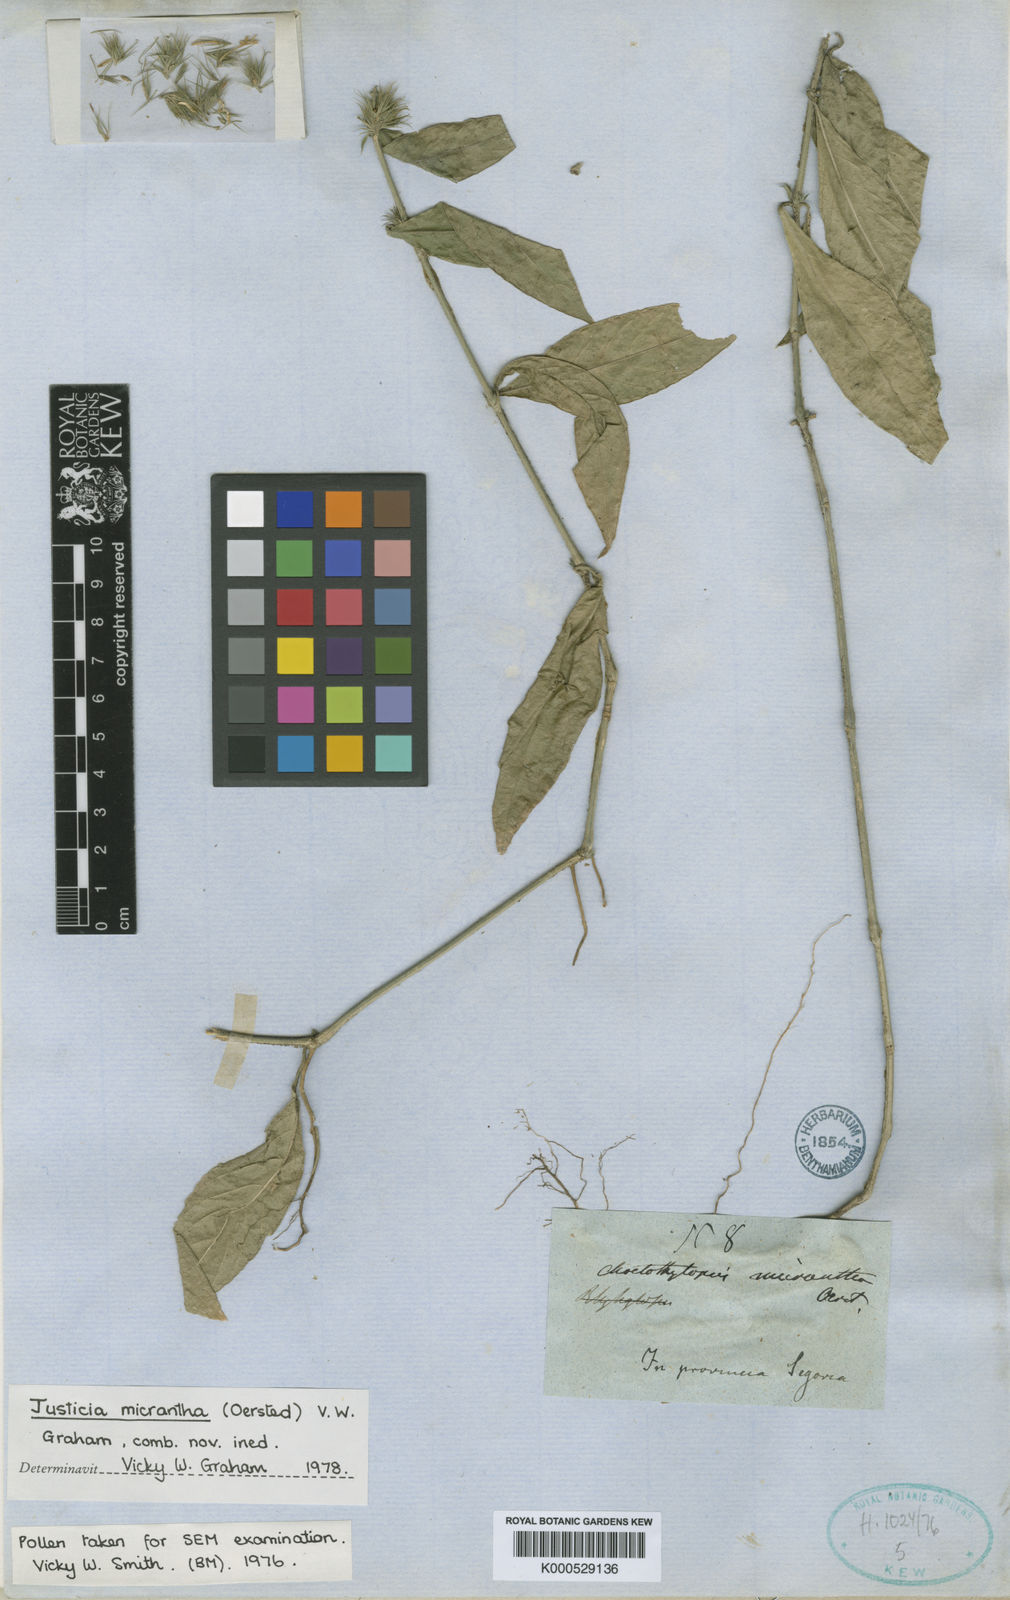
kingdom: Plantae
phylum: Tracheophyta
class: Magnoliopsida
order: Lamiales
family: Acanthaceae
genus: Justicia
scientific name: Justicia segoviaensis
